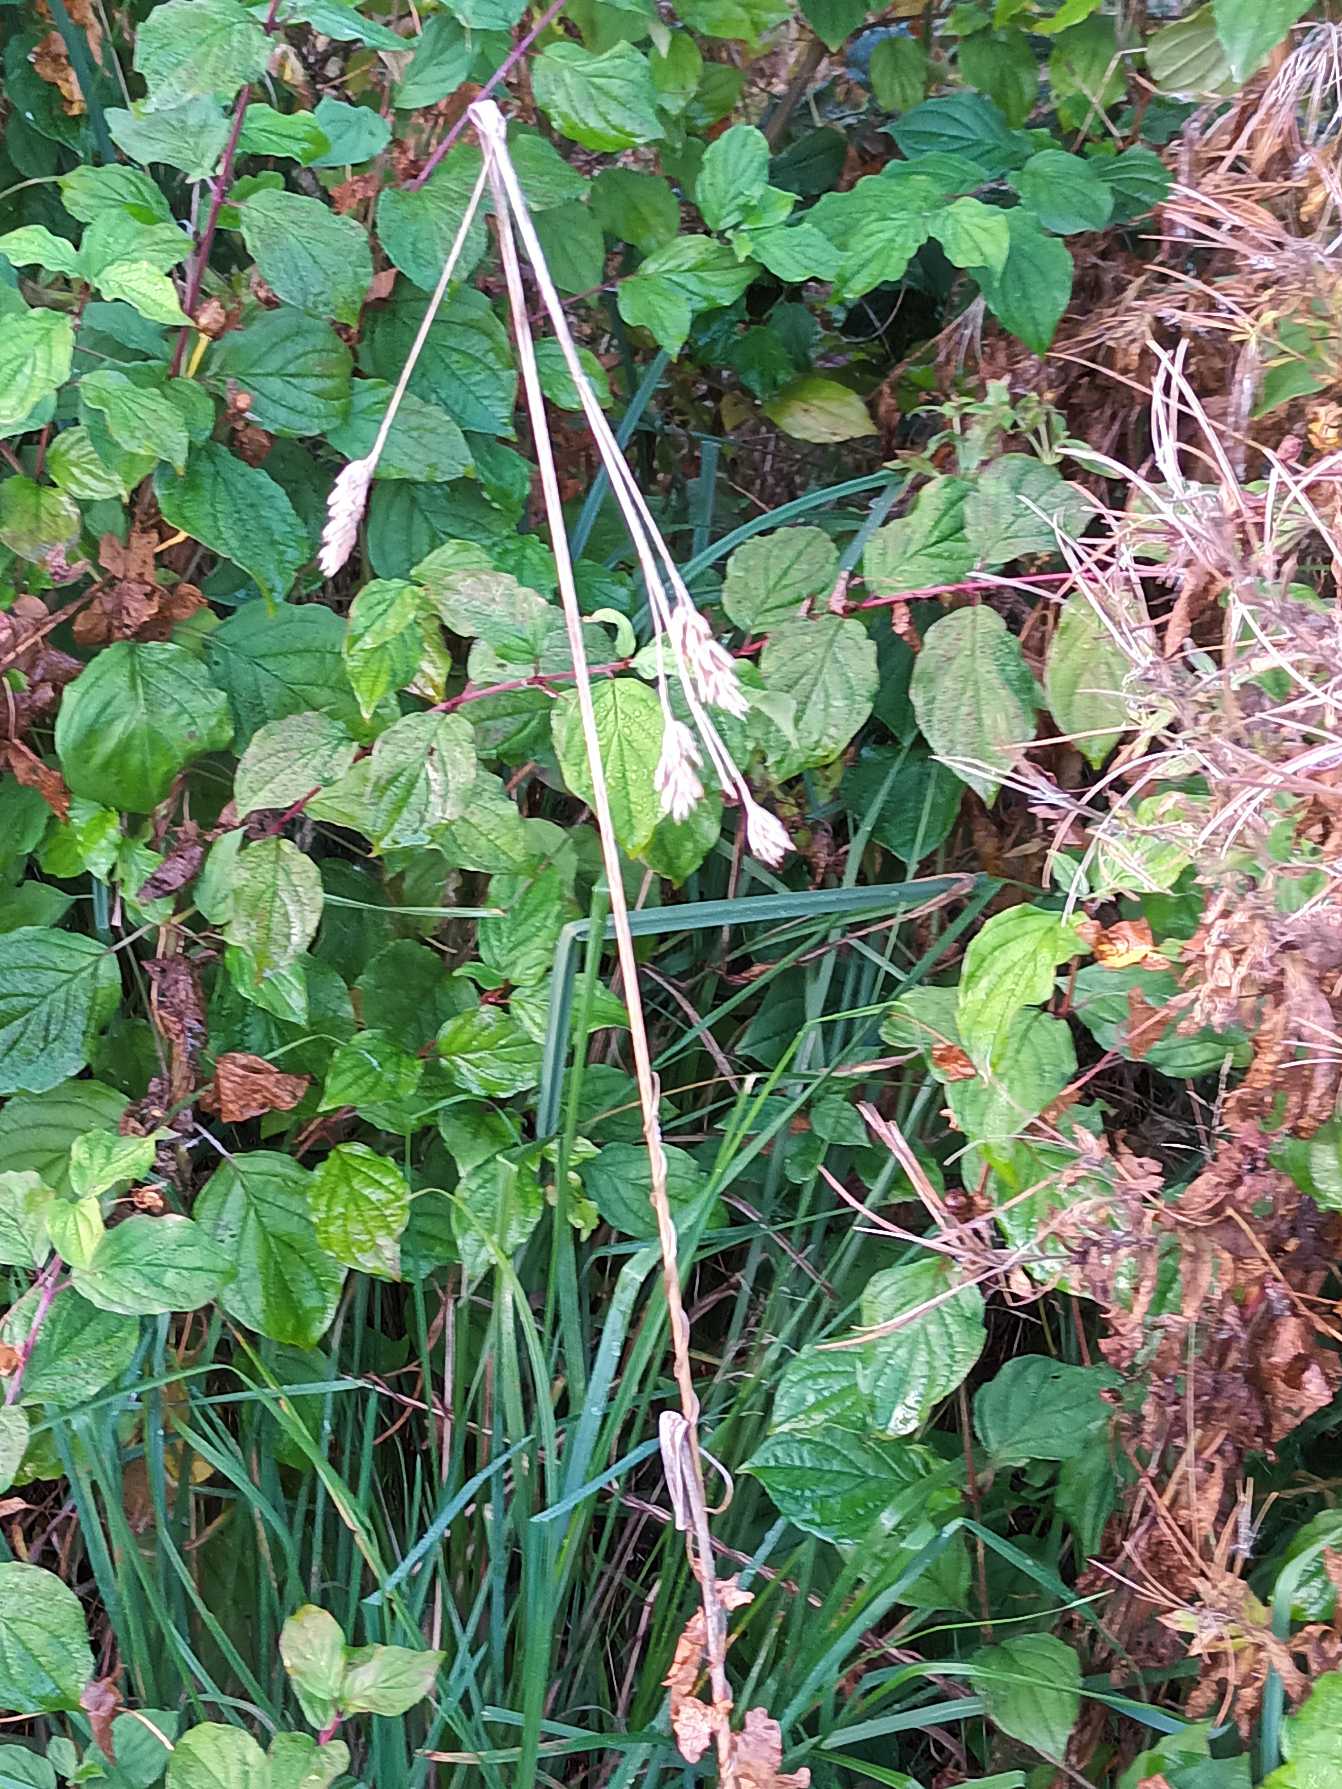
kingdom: Plantae
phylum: Tracheophyta
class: Liliopsida
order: Poales
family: Poaceae
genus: Dactylis
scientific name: Dactylis glomerata
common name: Almindelig hundegræs
